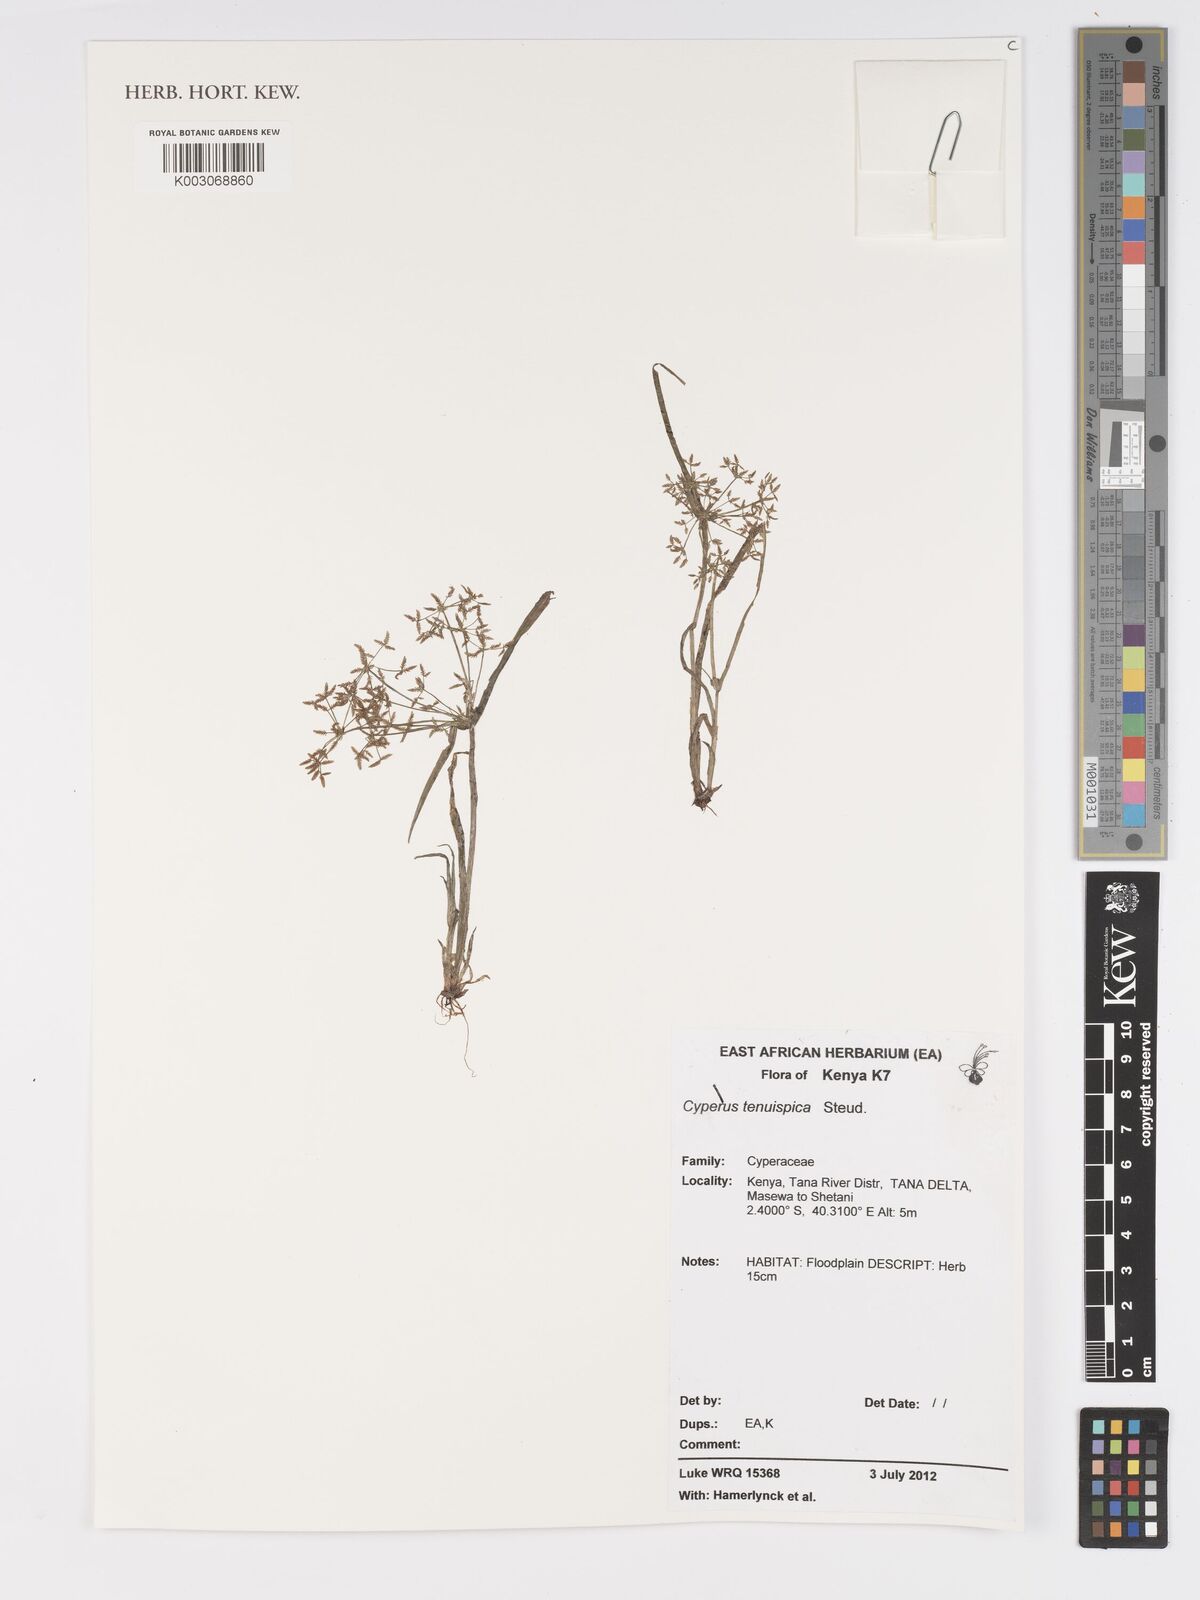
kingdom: Plantae
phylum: Tracheophyta
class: Liliopsida
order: Poales
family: Cyperaceae
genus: Cyperus
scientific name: Cyperus tenuispica
